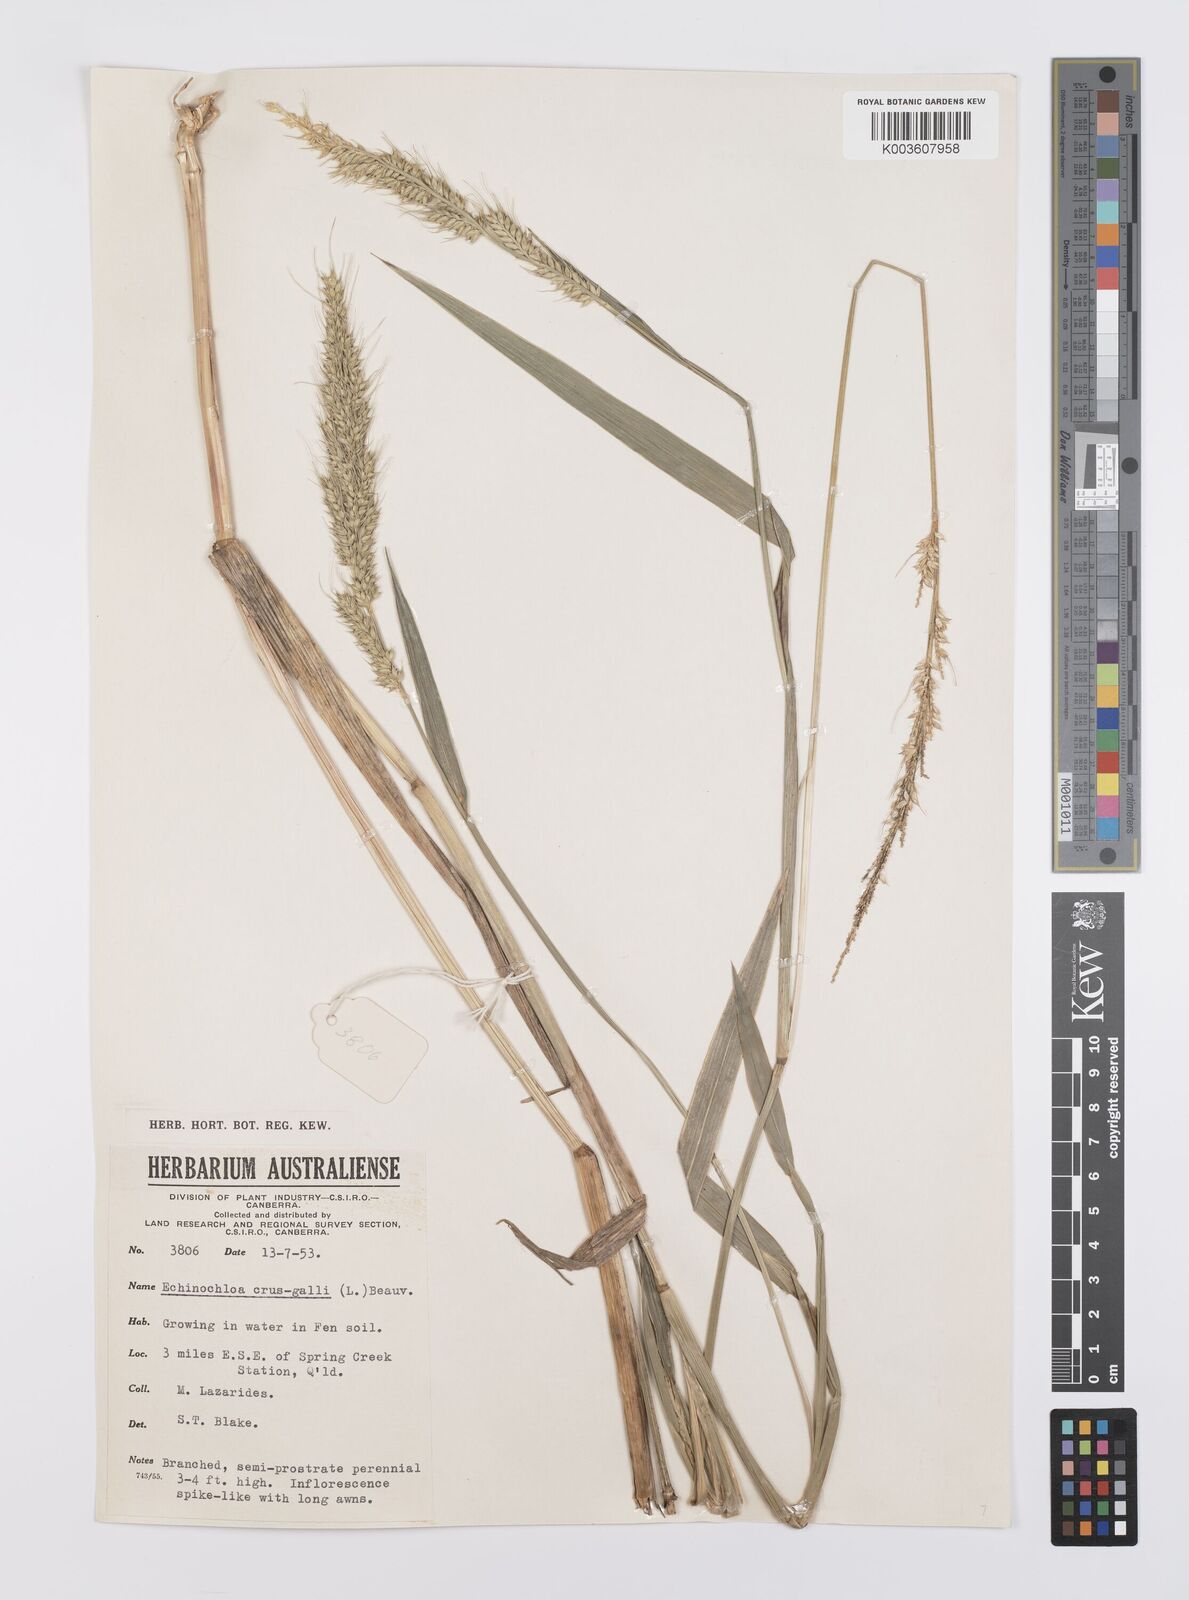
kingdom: Plantae
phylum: Tracheophyta
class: Liliopsida
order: Poales
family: Poaceae
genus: Echinochloa
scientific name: Echinochloa crus-galli
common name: Cockspur
